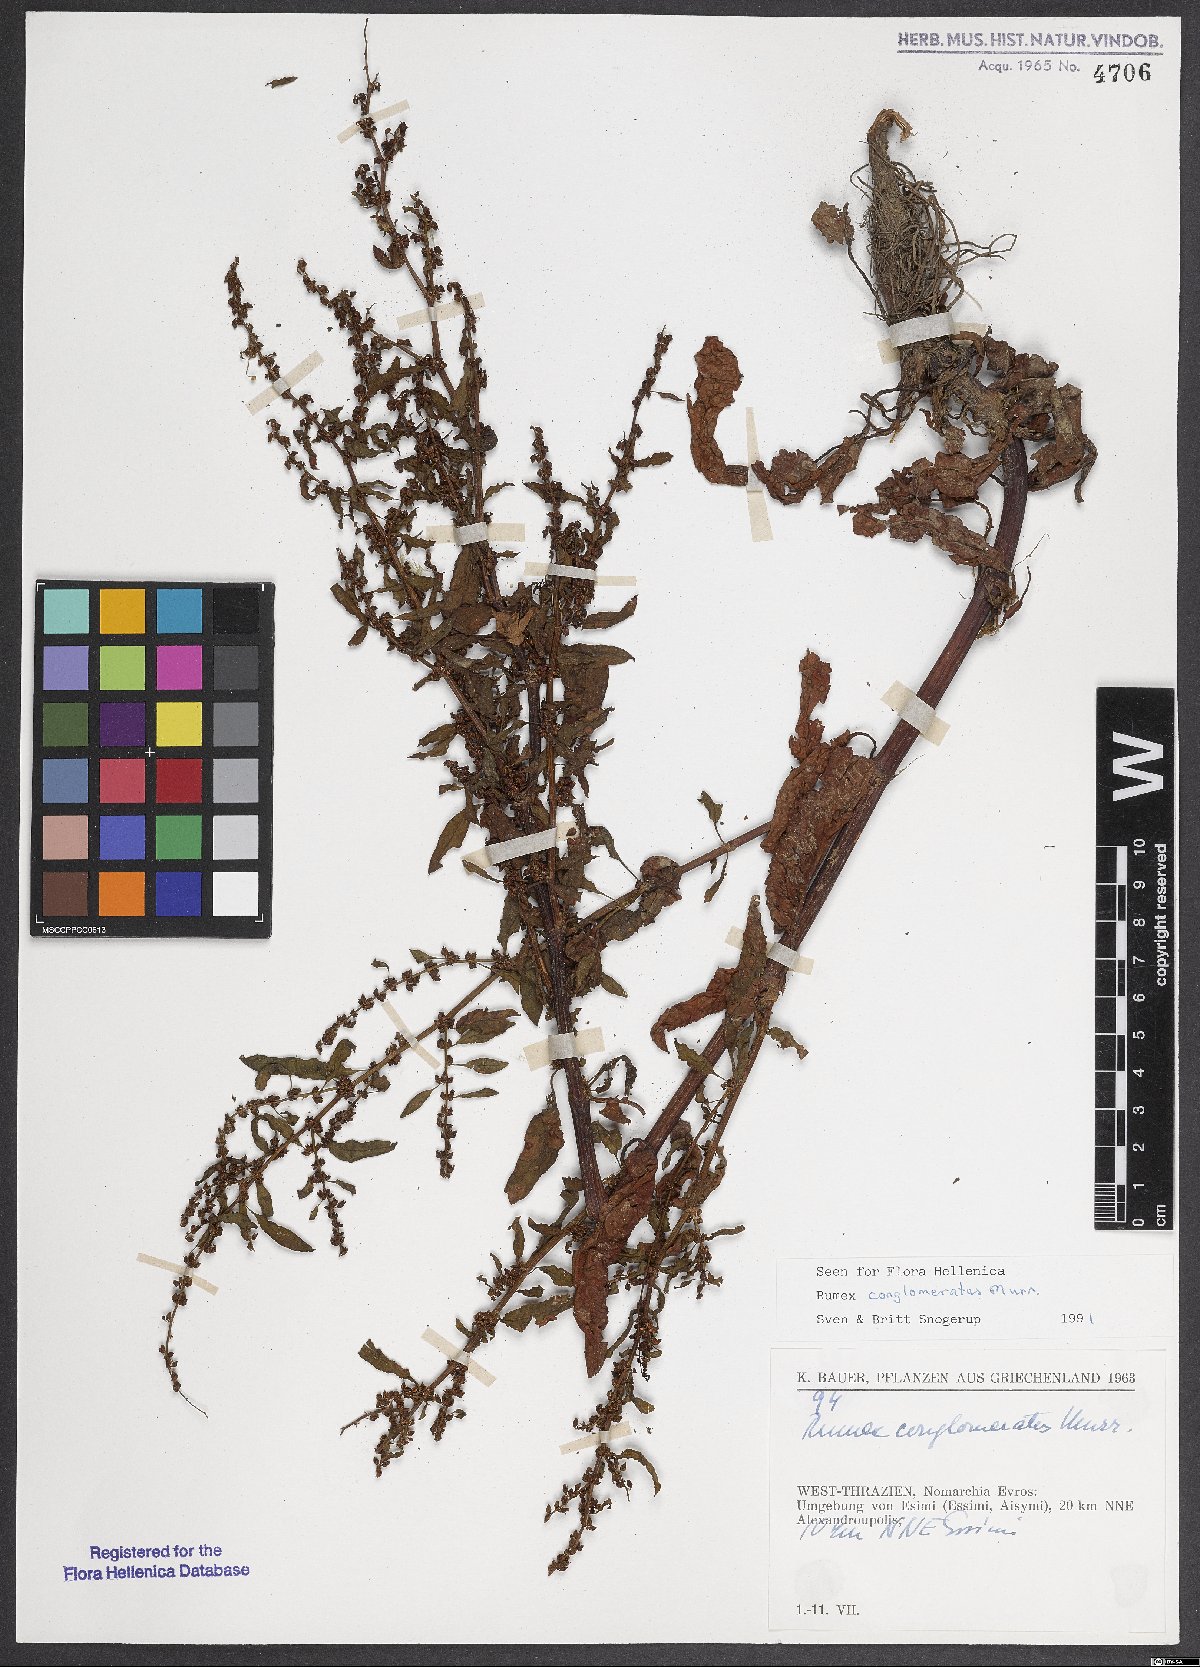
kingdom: Plantae
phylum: Tracheophyta
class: Magnoliopsida
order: Caryophyllales
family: Polygonaceae
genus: Rumex
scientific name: Rumex conglomeratus
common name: Clustered dock
